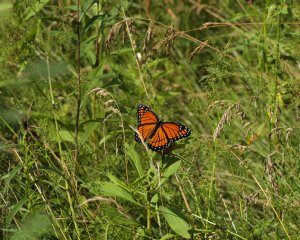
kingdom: Animalia
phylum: Arthropoda
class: Insecta
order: Lepidoptera
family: Nymphalidae
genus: Limenitis
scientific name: Limenitis archippus
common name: Viceroy
